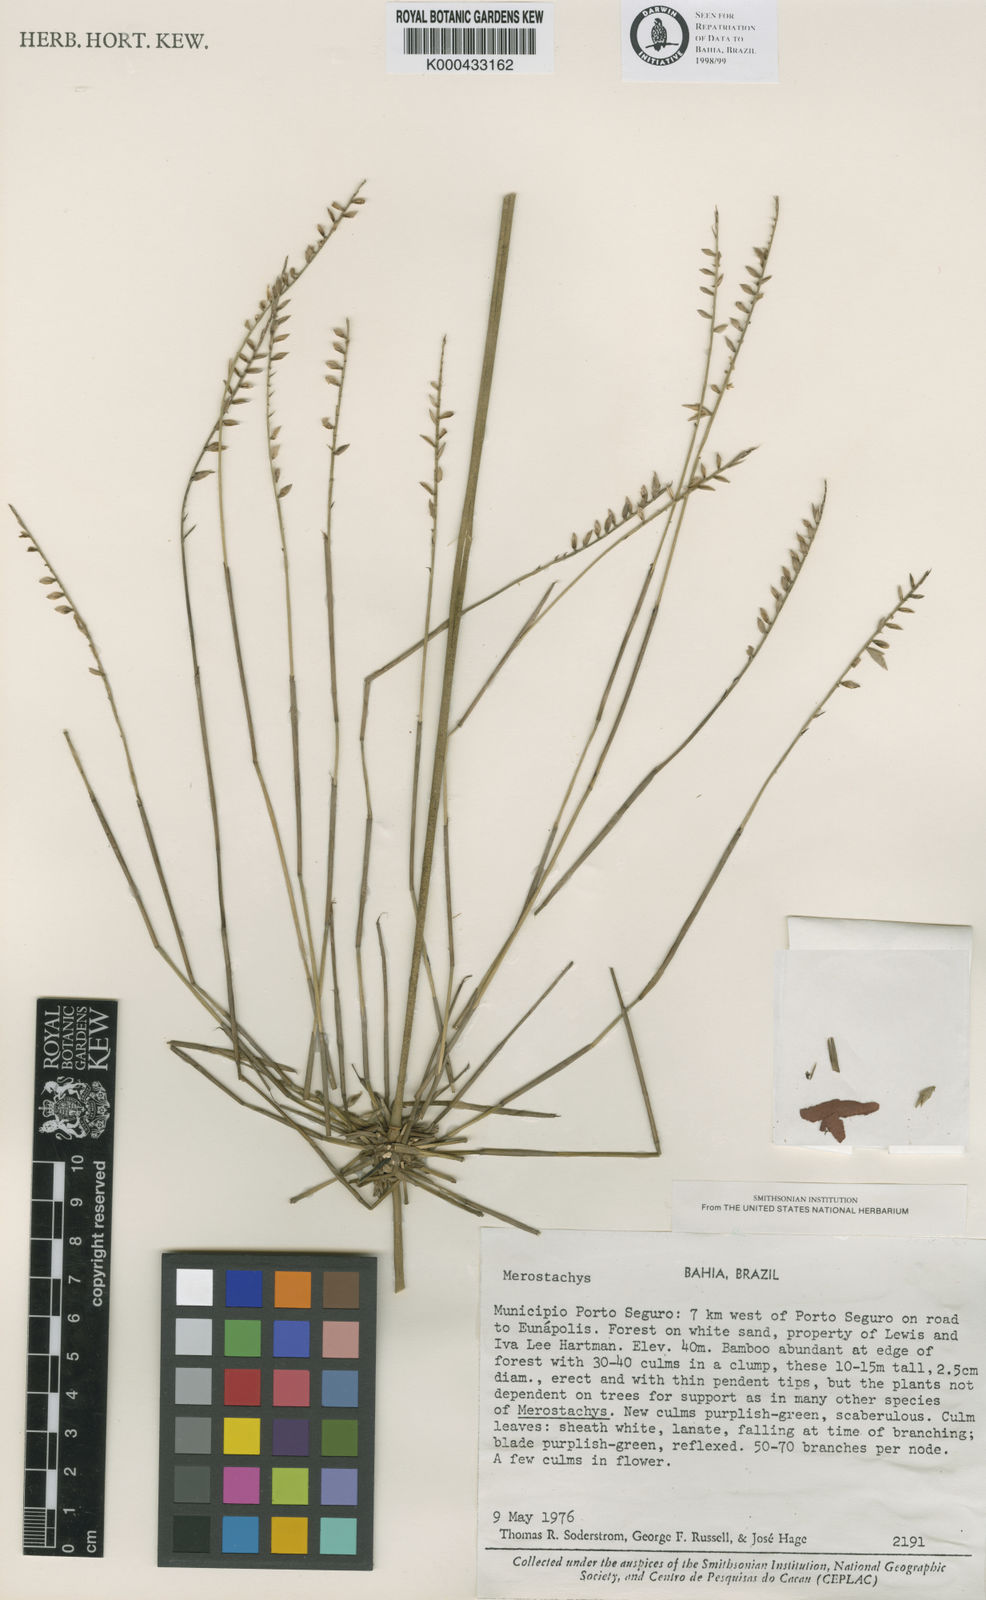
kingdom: Plantae
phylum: Tracheophyta
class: Liliopsida
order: Poales
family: Poaceae
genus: Merostachys
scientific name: Merostachys lanata
